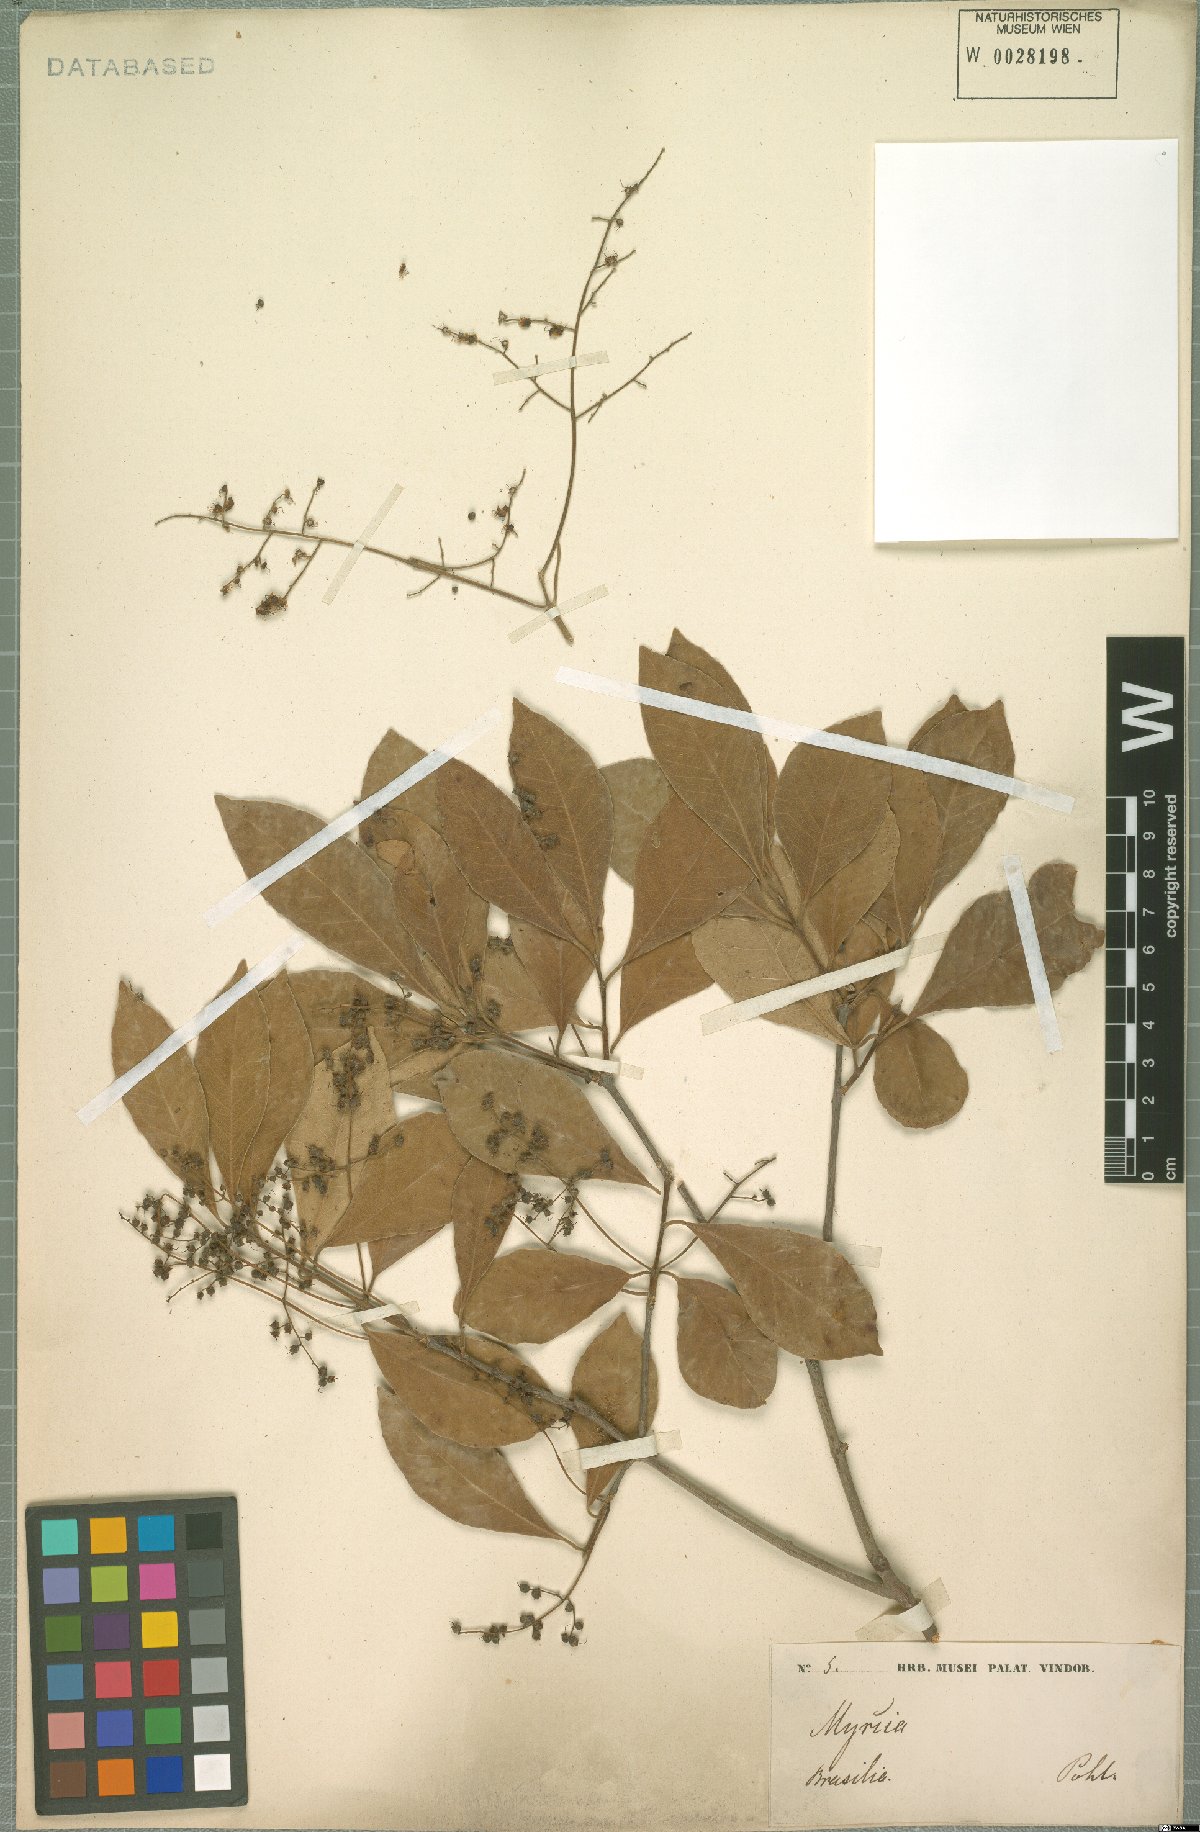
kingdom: Plantae
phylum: Tracheophyta
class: Magnoliopsida
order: Myrtales
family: Myrtaceae
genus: Myrcia
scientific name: Myrcia
